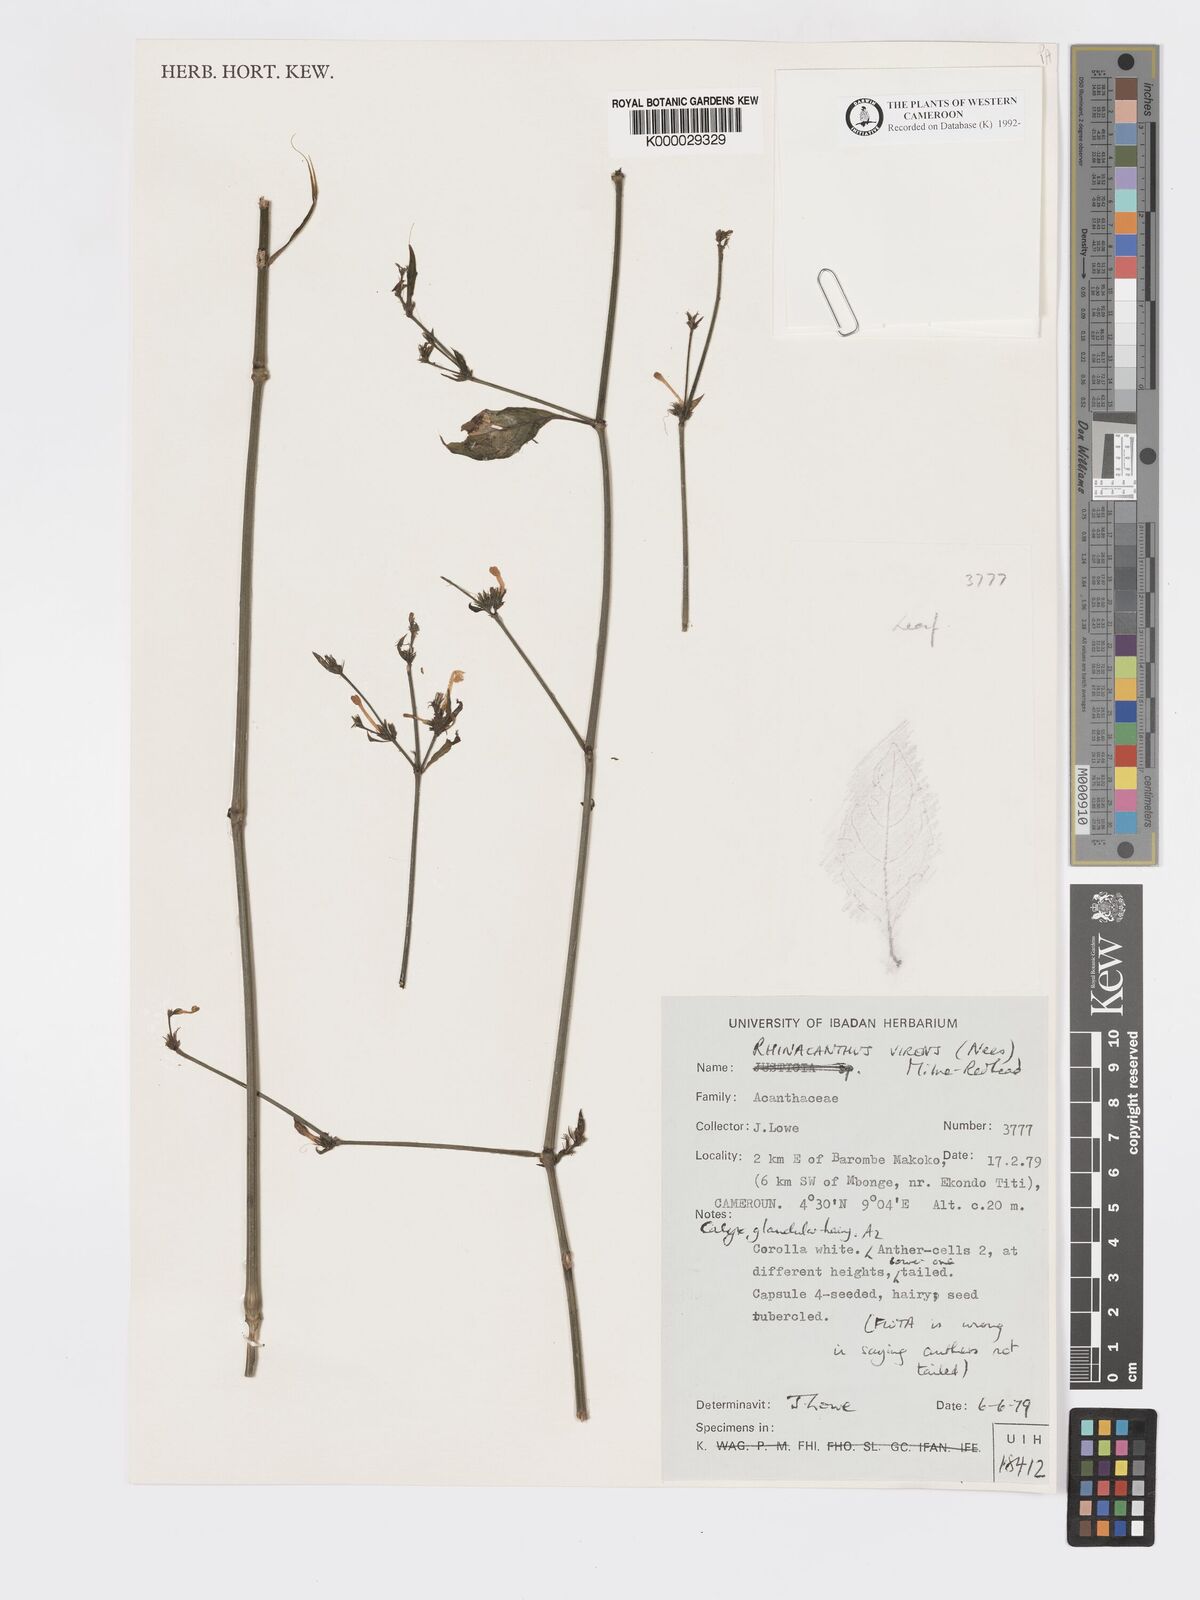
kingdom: Plantae
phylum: Tracheophyta
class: Magnoliopsida
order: Lamiales
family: Acanthaceae
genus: Rhinacanthus
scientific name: Rhinacanthus virens
